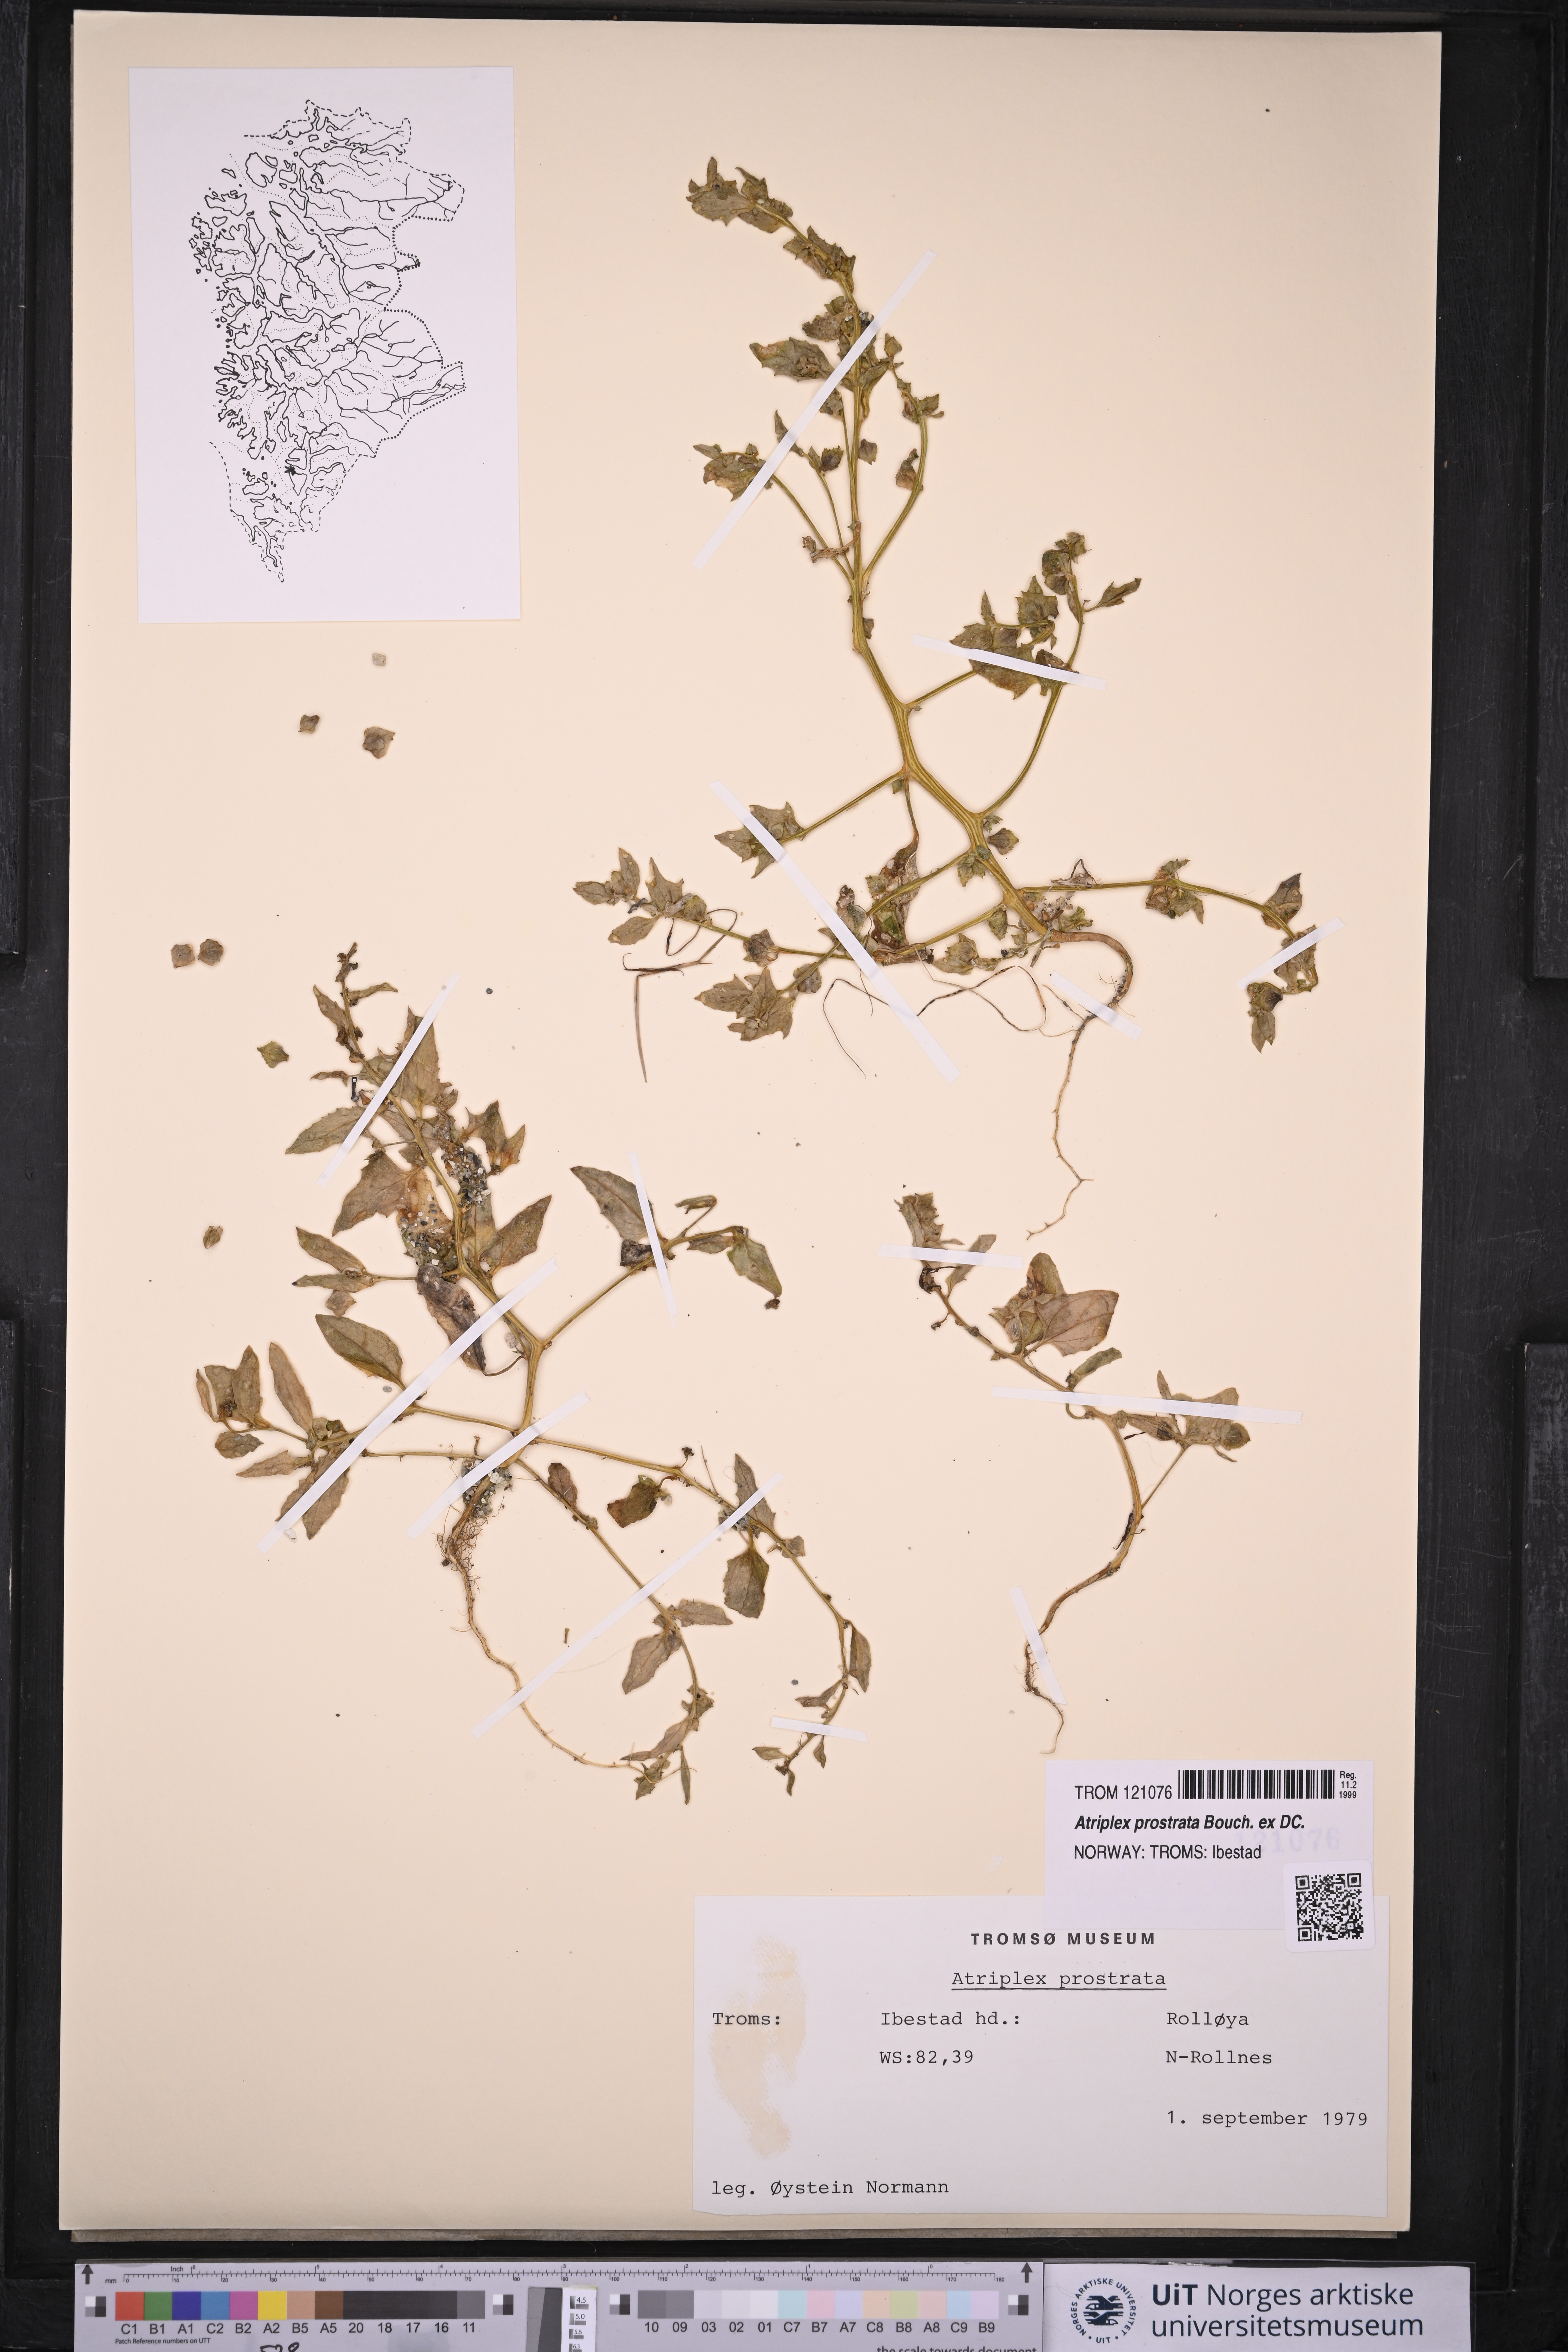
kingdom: Plantae
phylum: Tracheophyta
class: Magnoliopsida
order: Caryophyllales
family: Amaranthaceae
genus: Atriplex
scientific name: Atriplex prostrata
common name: Spear-leaved orache
